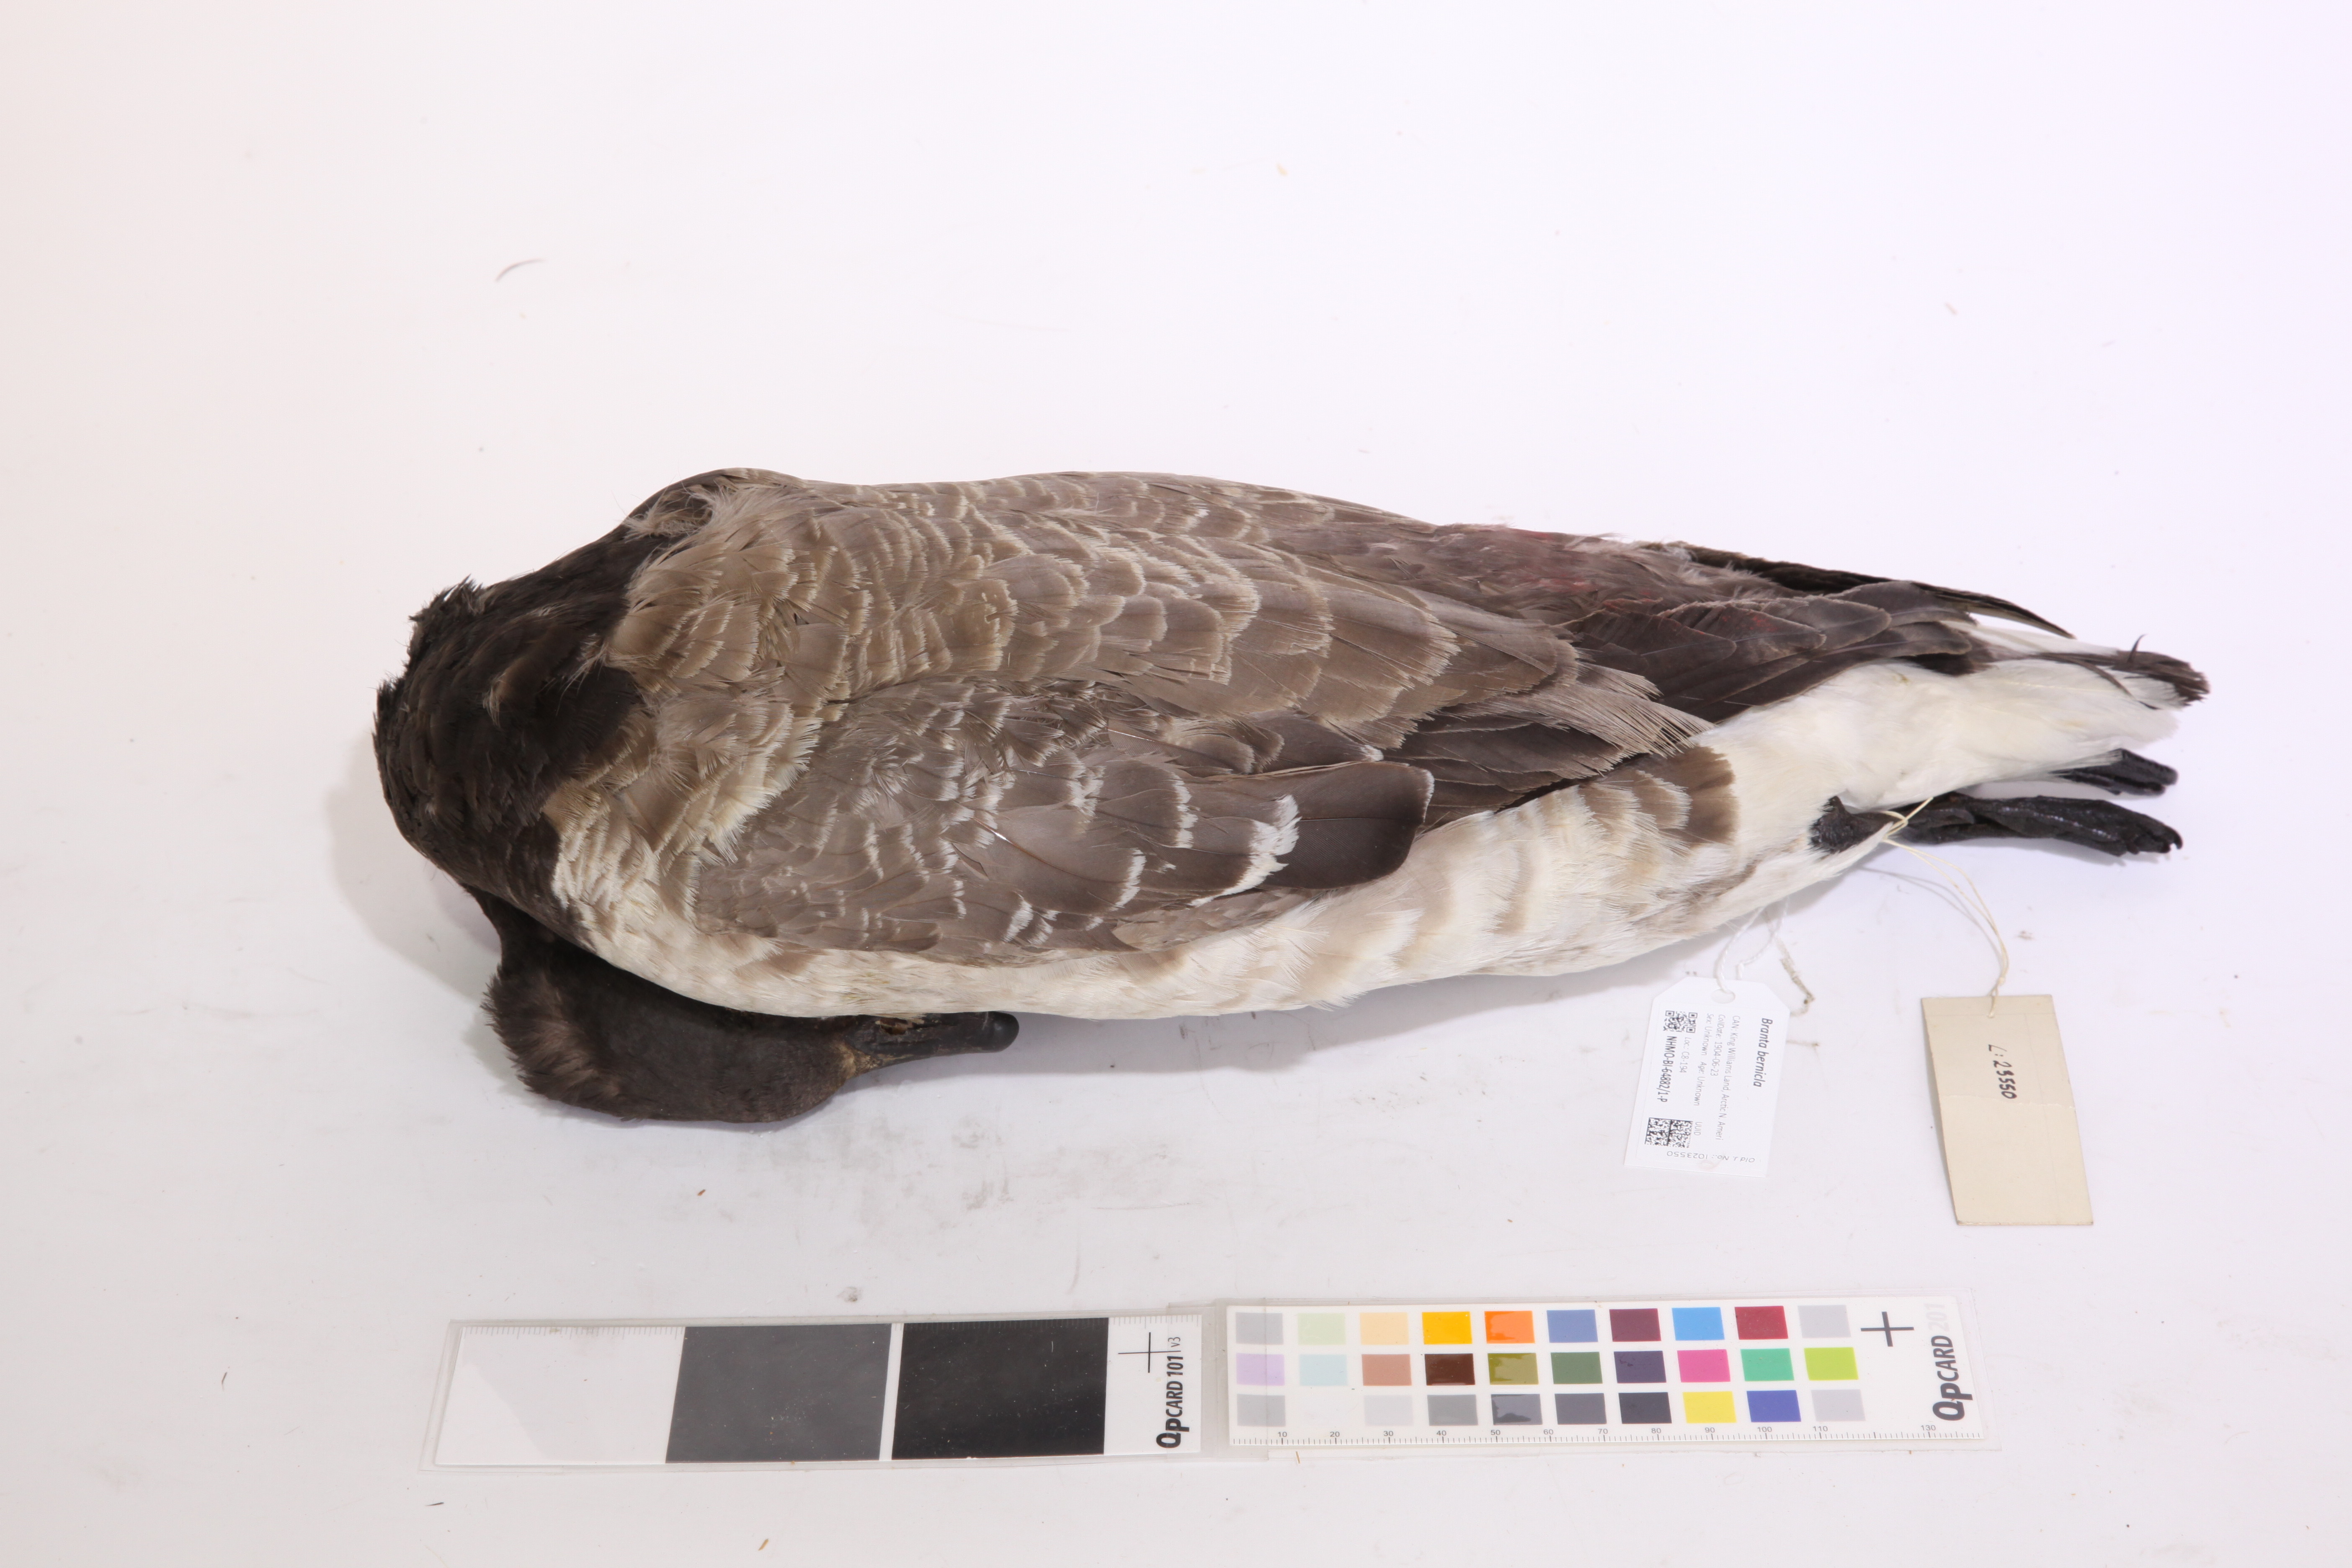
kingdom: Animalia
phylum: Chordata
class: Aves
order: Anseriformes
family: Anatidae
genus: Branta
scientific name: Branta bernicla
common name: Brant goose
